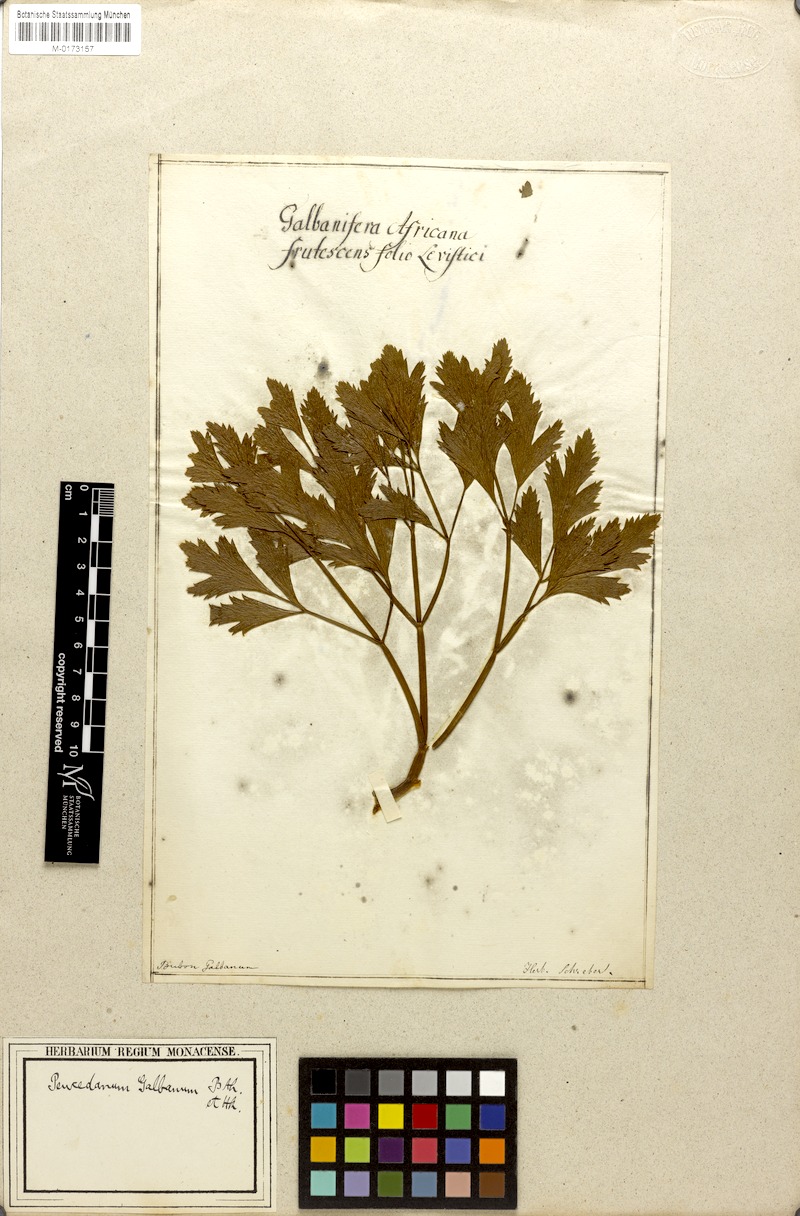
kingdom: Plantae
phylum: Tracheophyta
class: Magnoliopsida
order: Apiales
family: Apiaceae
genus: Notobubon
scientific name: Notobubon galbanum
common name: Blisterbush
